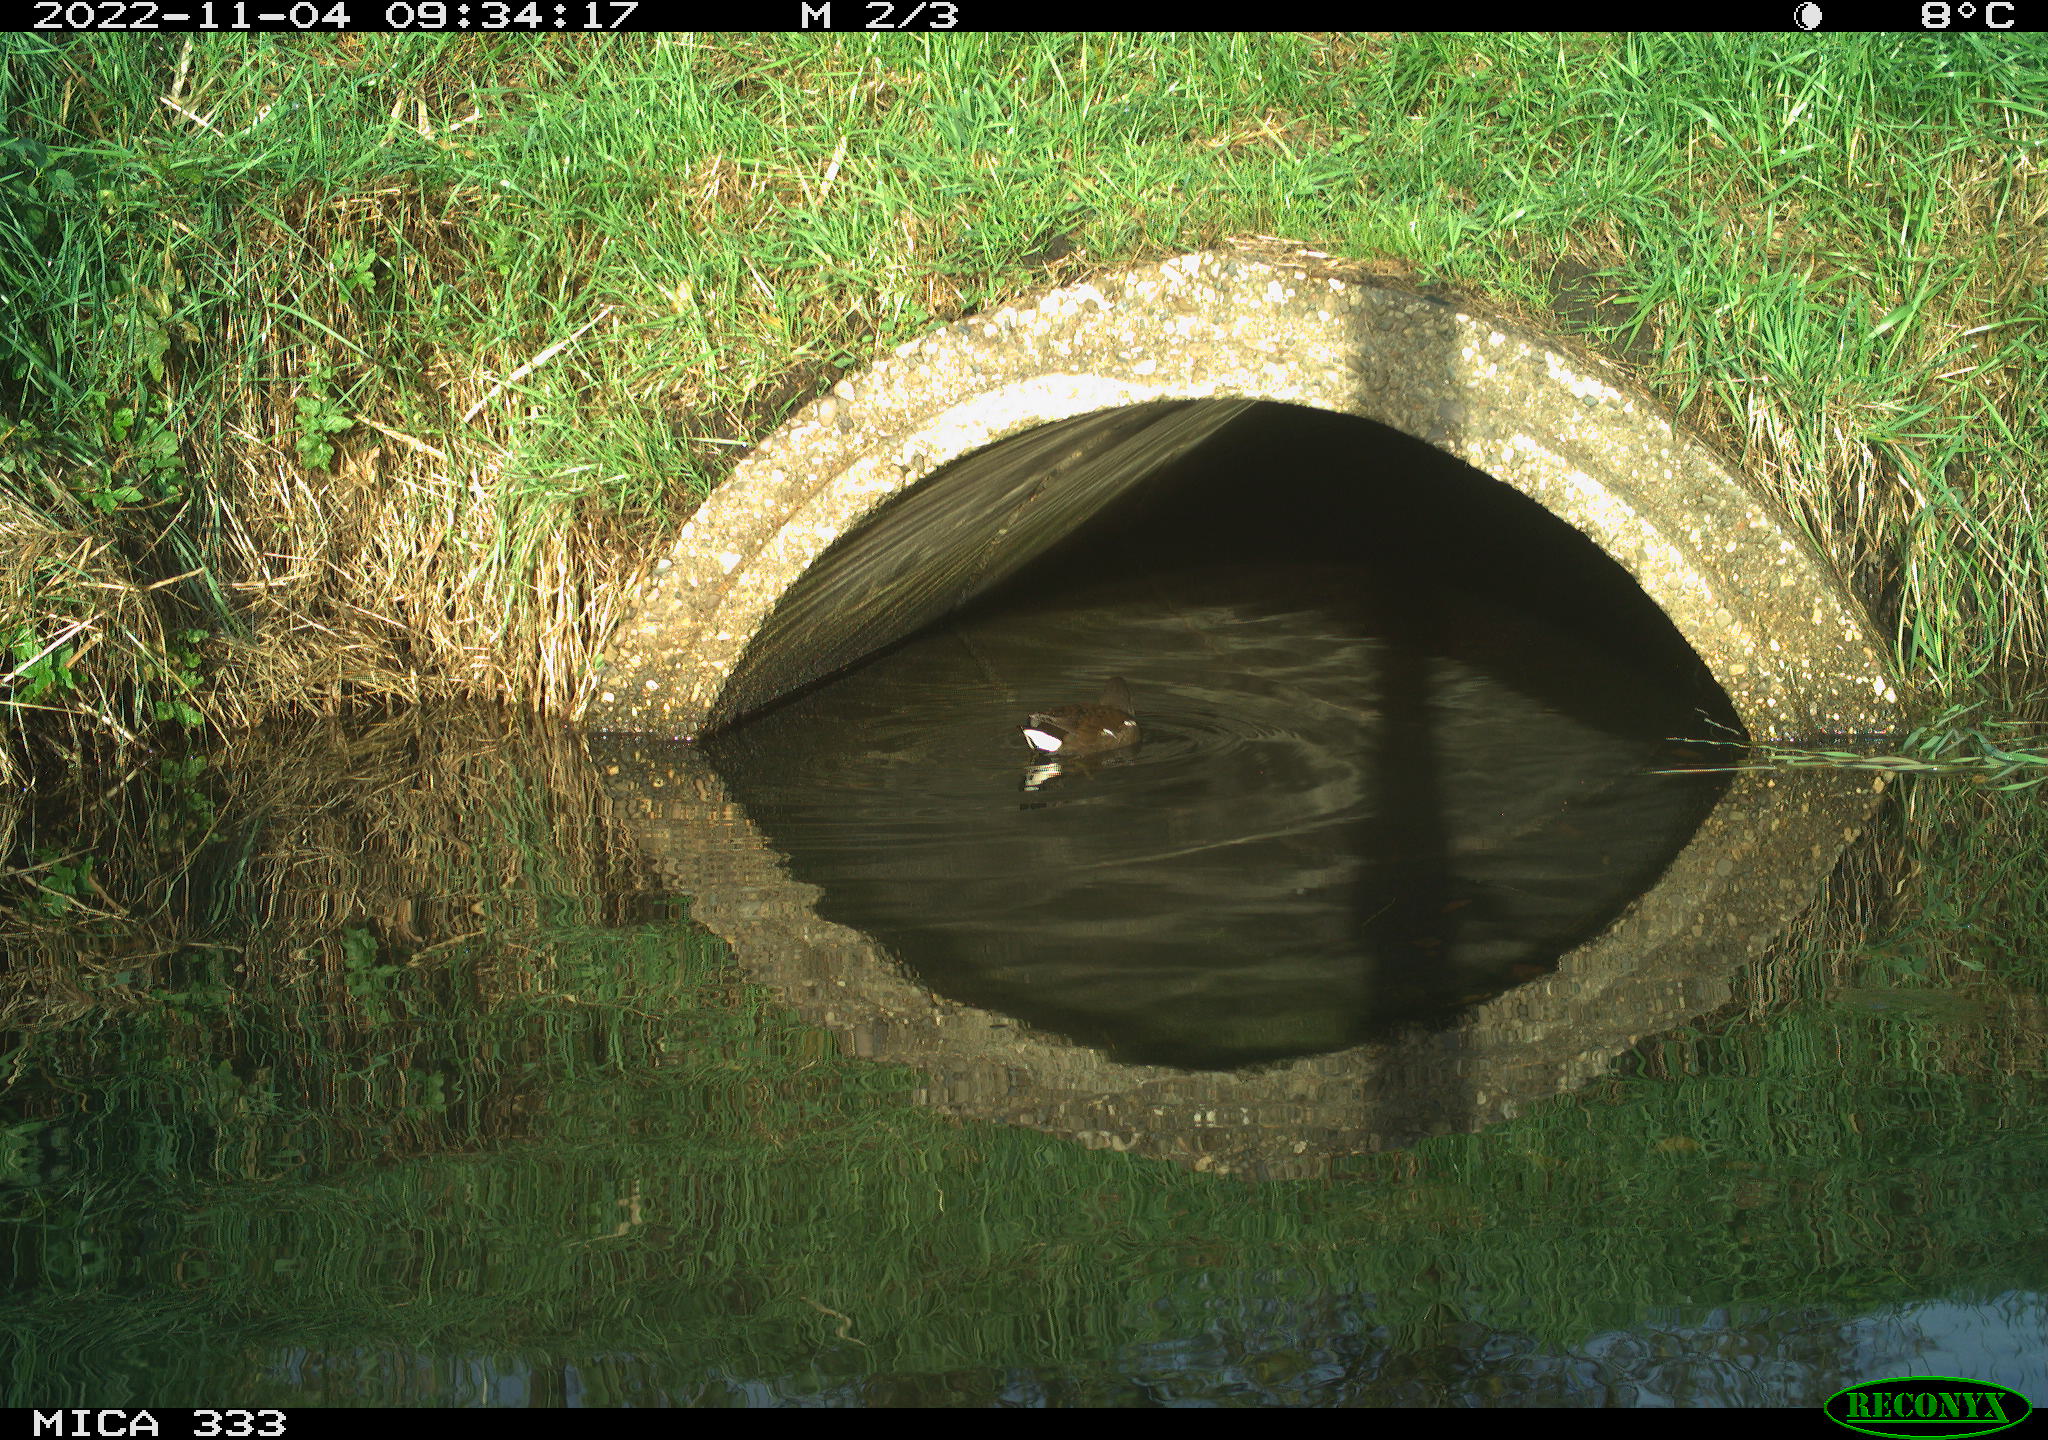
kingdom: Animalia
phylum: Chordata
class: Aves
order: Gruiformes
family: Rallidae
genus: Gallinula
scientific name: Gallinula chloropus
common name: Common moorhen
